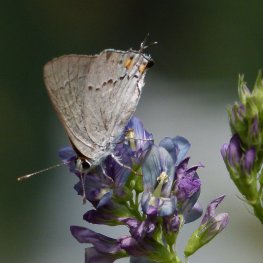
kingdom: Animalia
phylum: Arthropoda
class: Insecta
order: Lepidoptera
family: Lycaenidae
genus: Strymon
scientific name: Strymon melinus
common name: Gray Hairstreak
